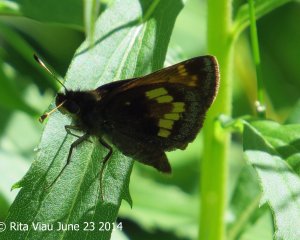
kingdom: Animalia
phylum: Arthropoda
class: Insecta
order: Lepidoptera
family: Hesperiidae
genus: Lon
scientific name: Lon hobomok
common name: Hobomok Skipper
